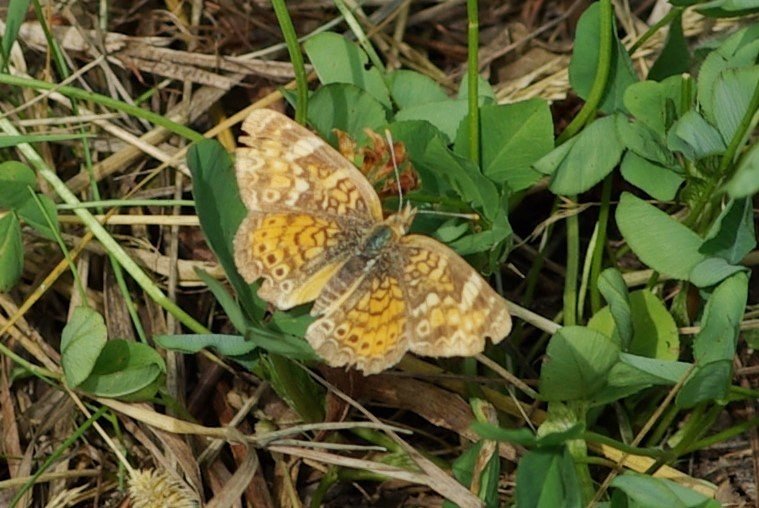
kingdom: Animalia
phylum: Arthropoda
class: Insecta
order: Lepidoptera
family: Nymphalidae
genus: Phyciodes
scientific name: Phyciodes tharos
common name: Northern Crescent
